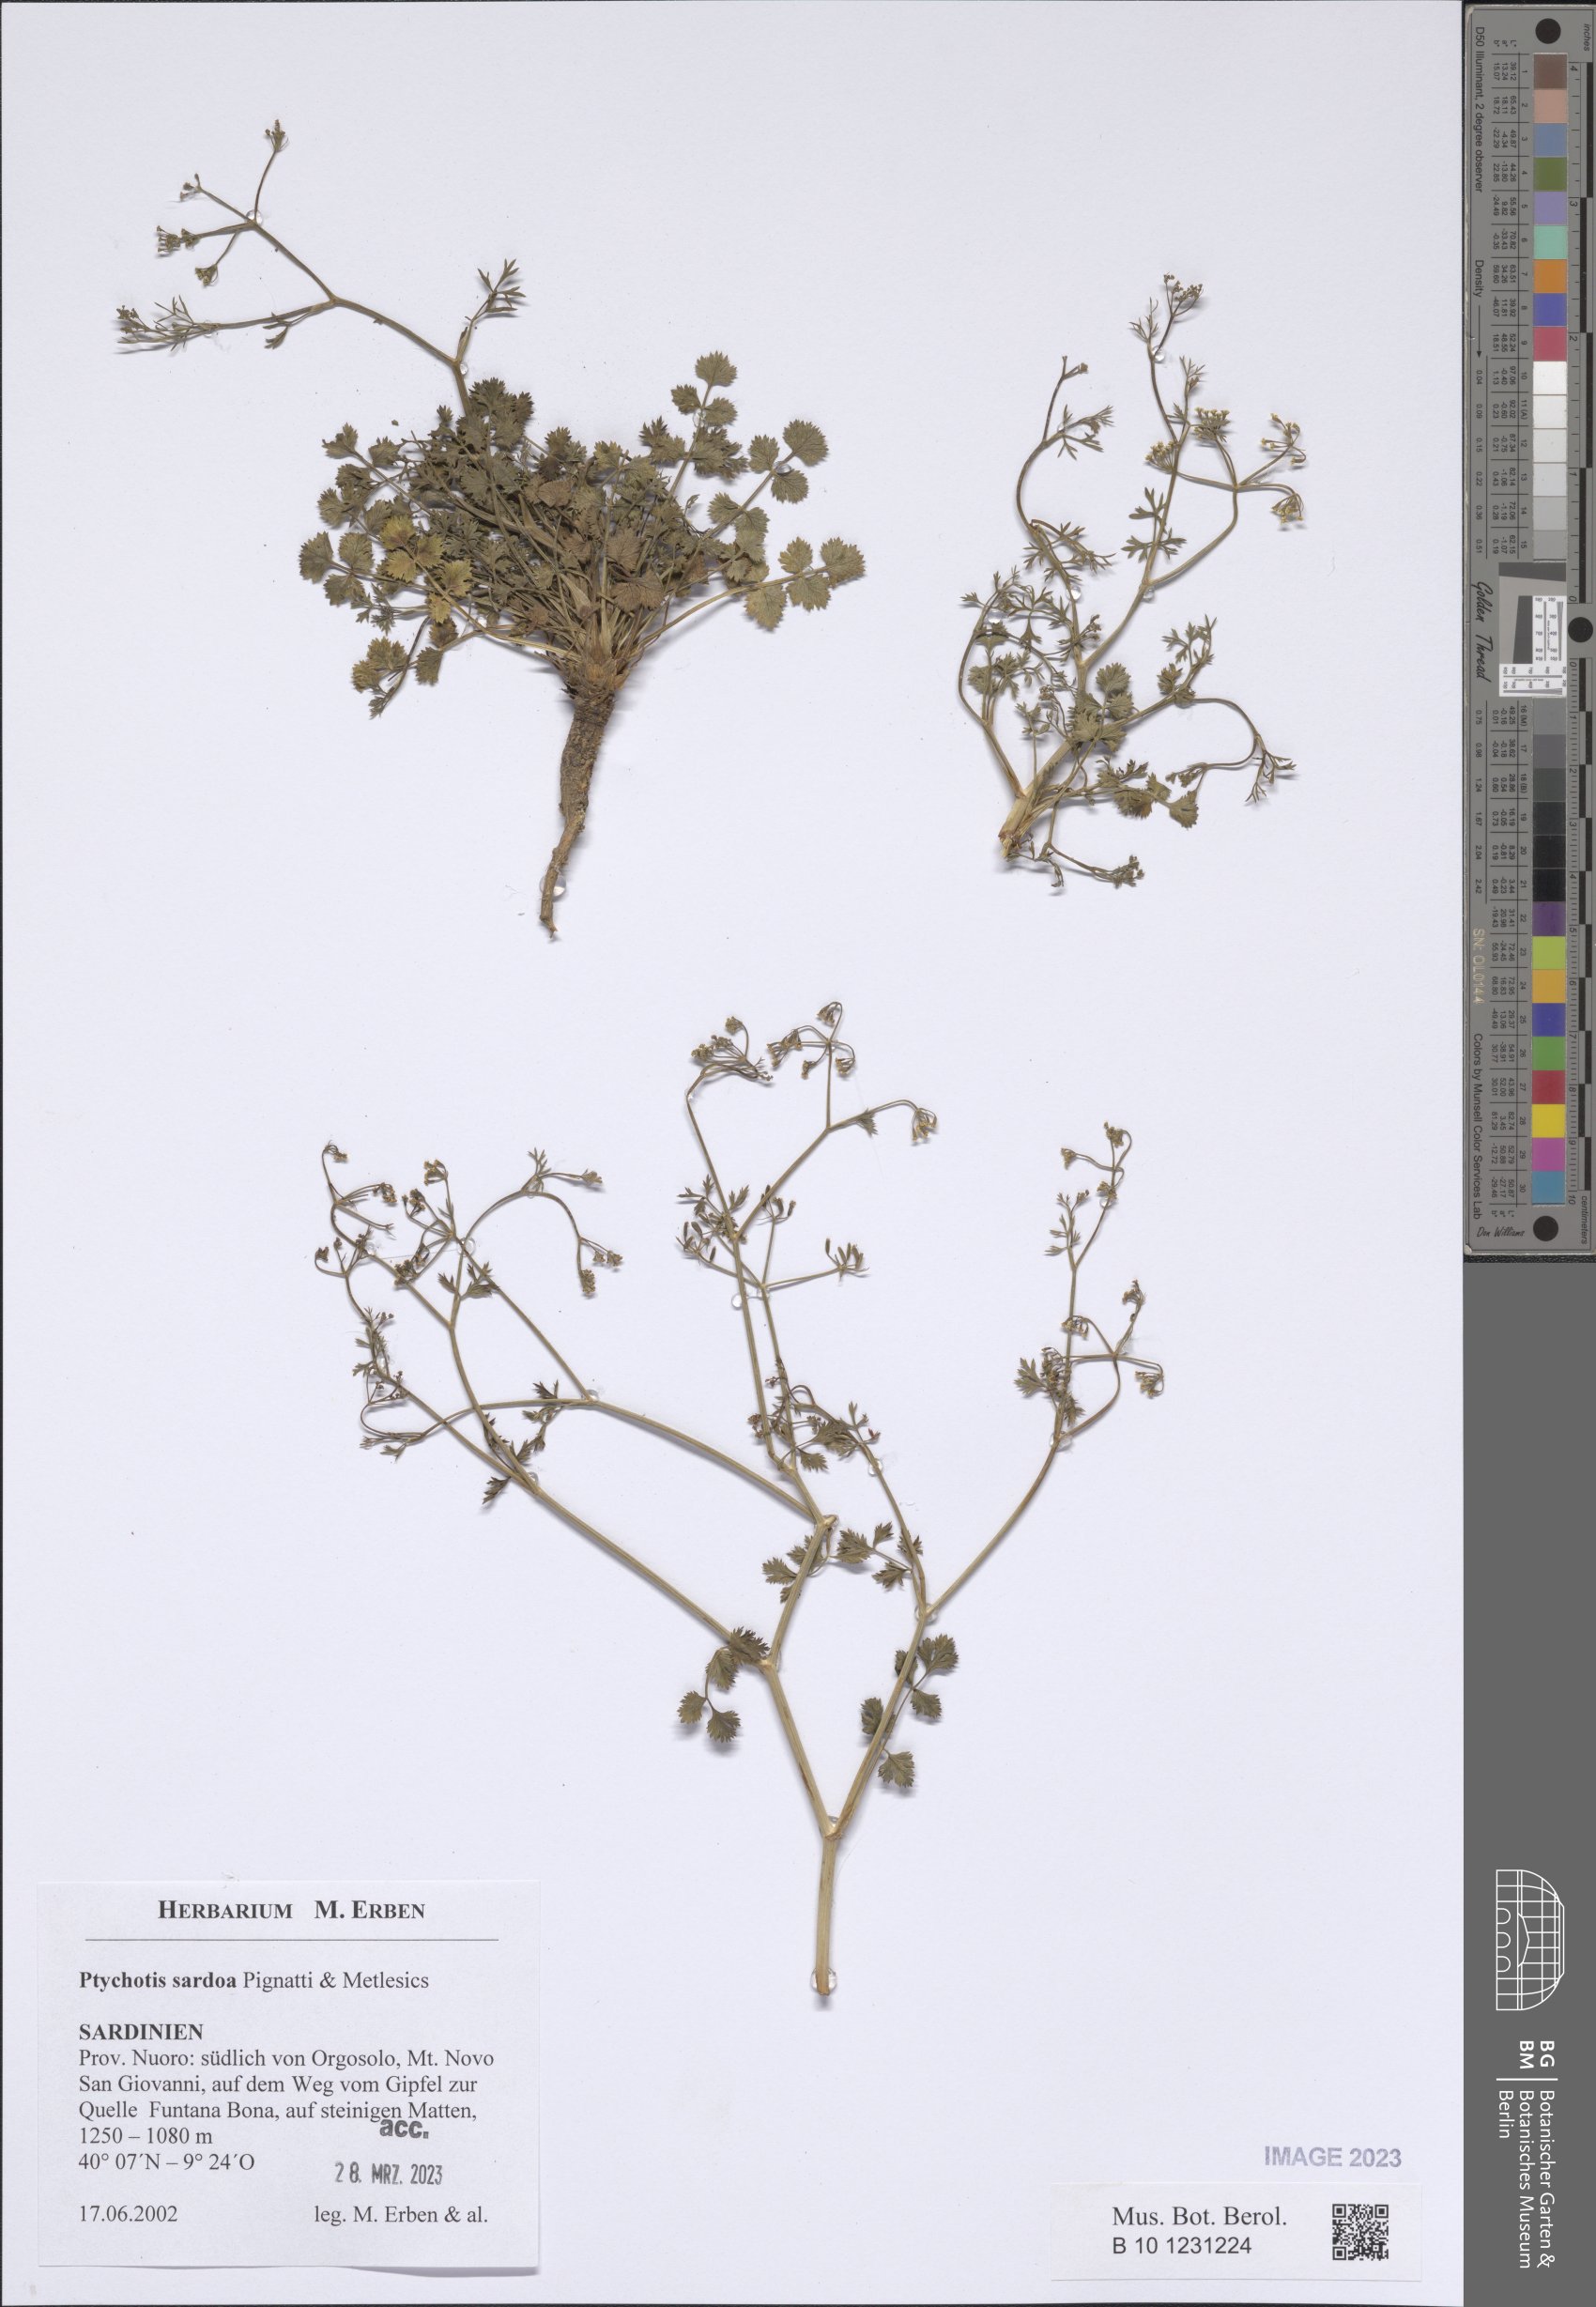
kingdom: Plantae
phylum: Tracheophyta
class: Magnoliopsida
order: Apiales
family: Apiaceae
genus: Ptychotis
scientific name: Ptychotis sardoa
